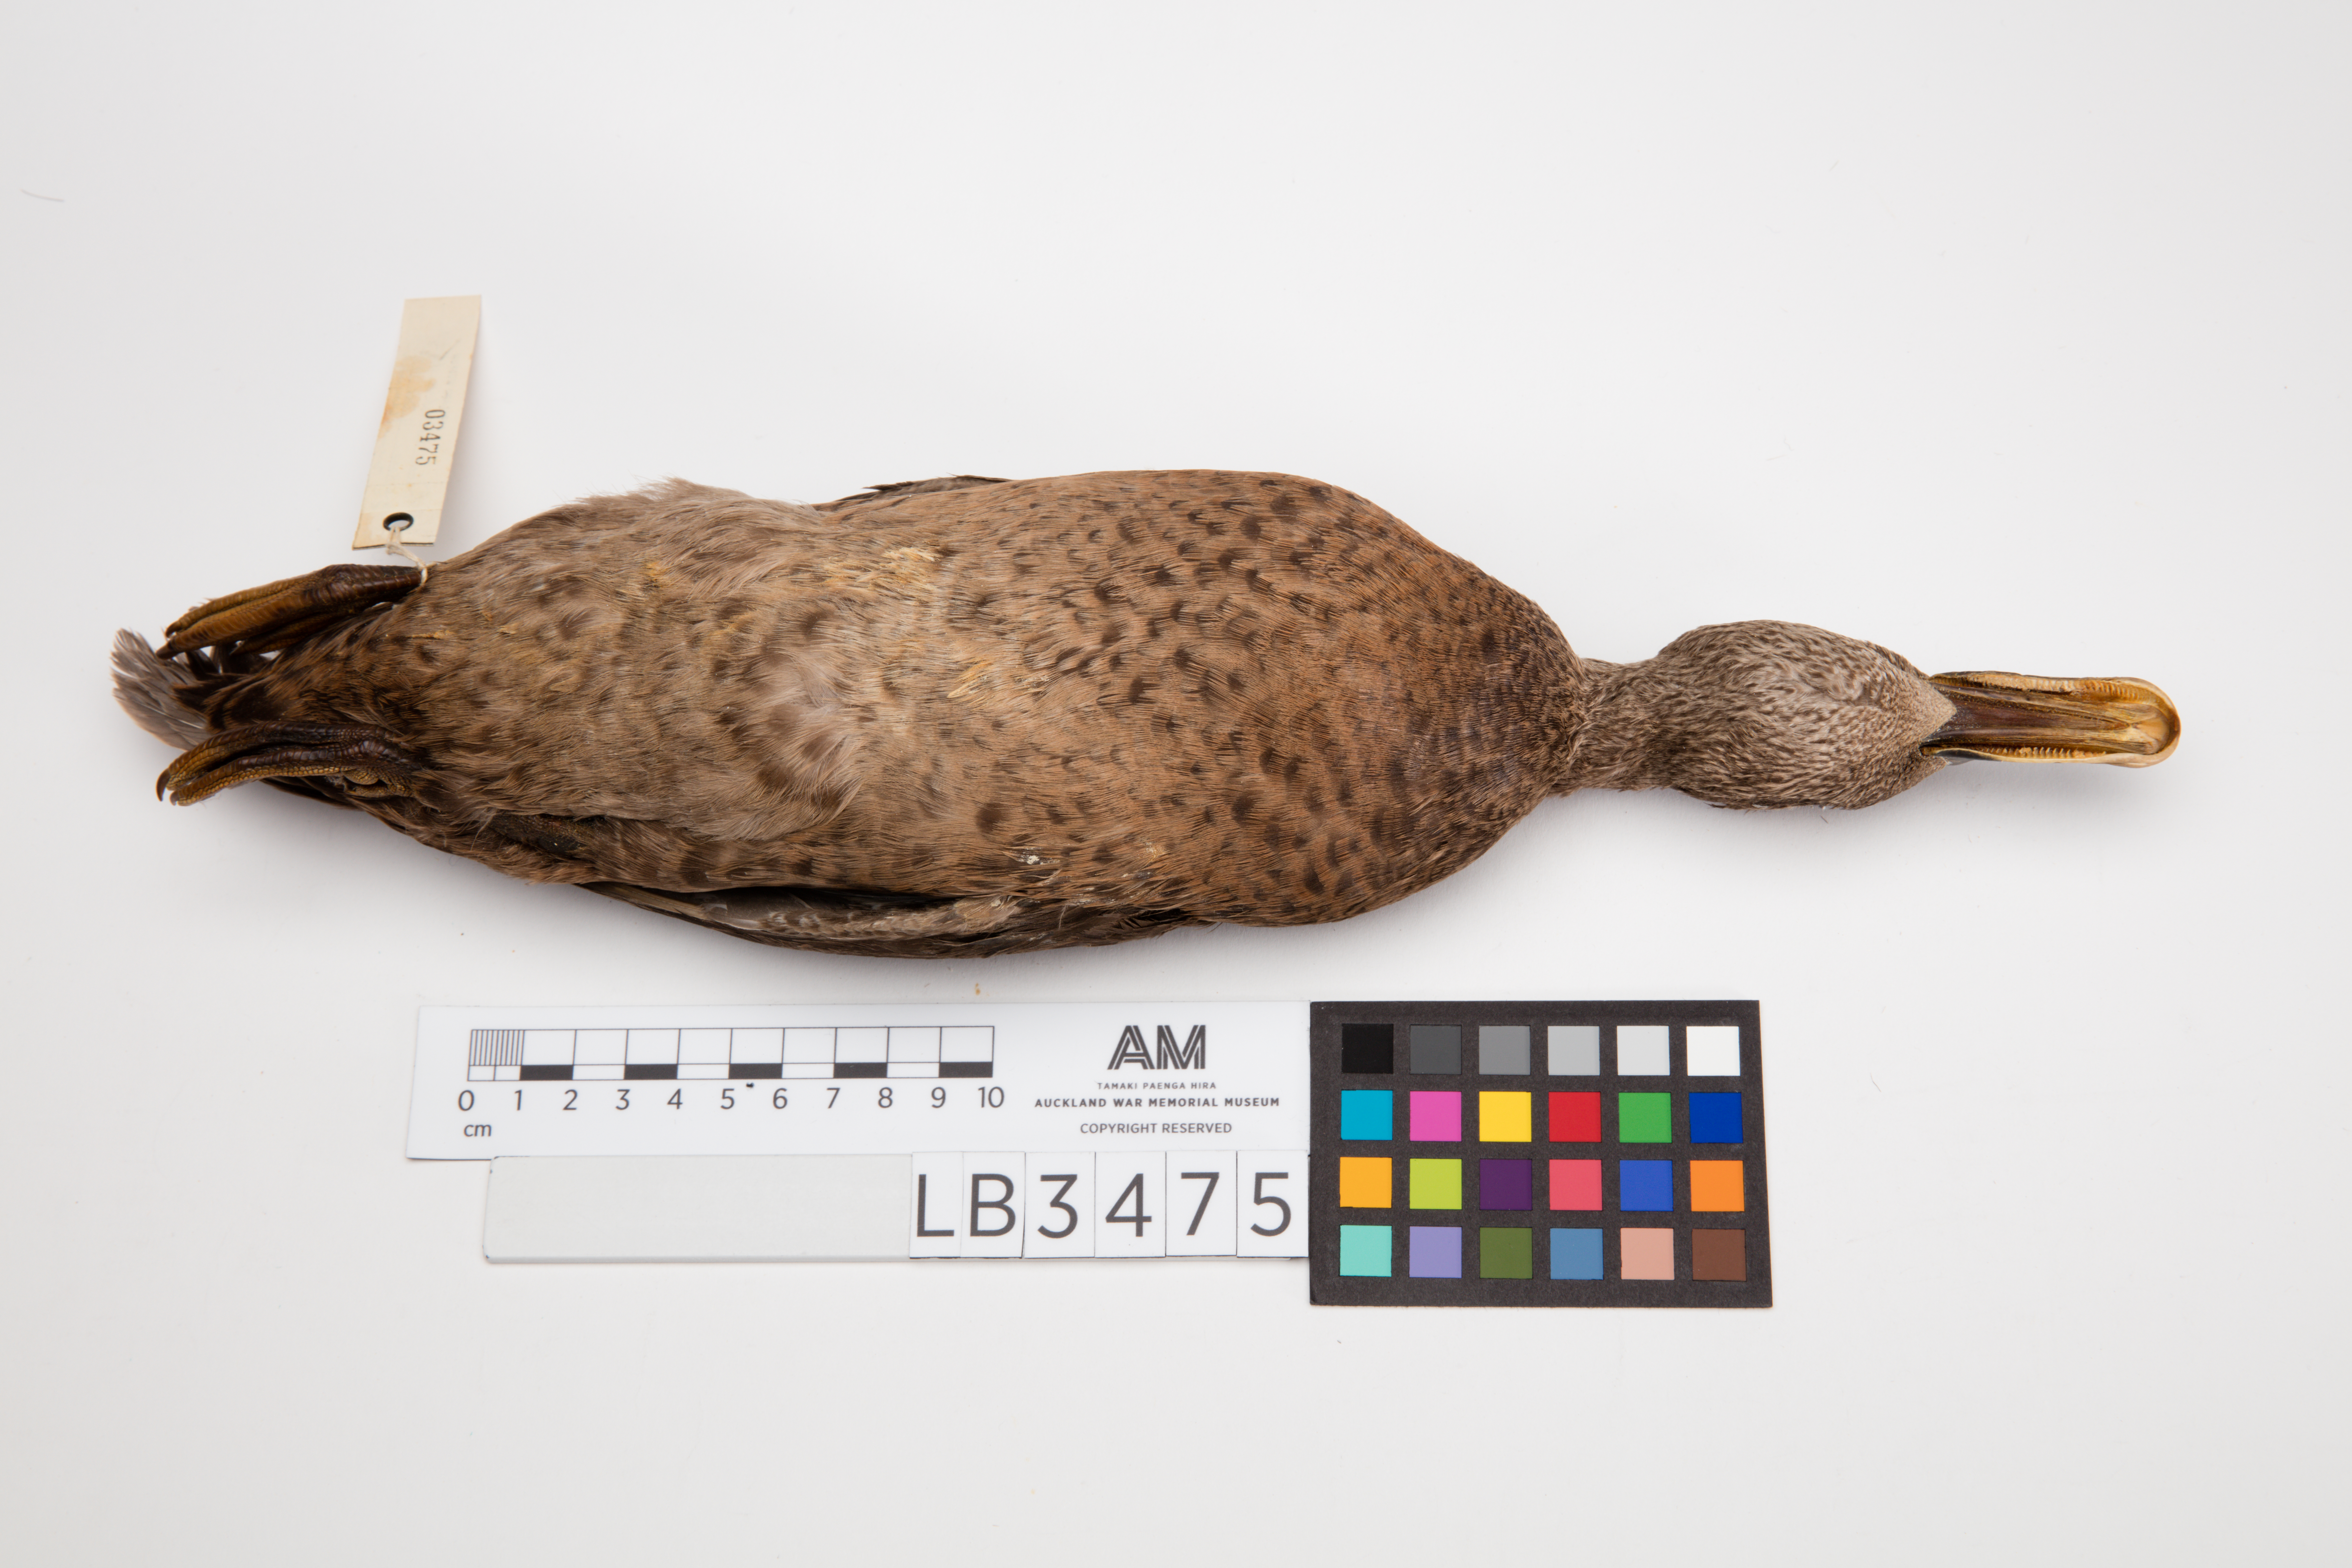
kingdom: Animalia
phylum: Chordata
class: Aves
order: Anseriformes
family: Anatidae
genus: Anas
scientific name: Anas chlorotis
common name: Brown teal
